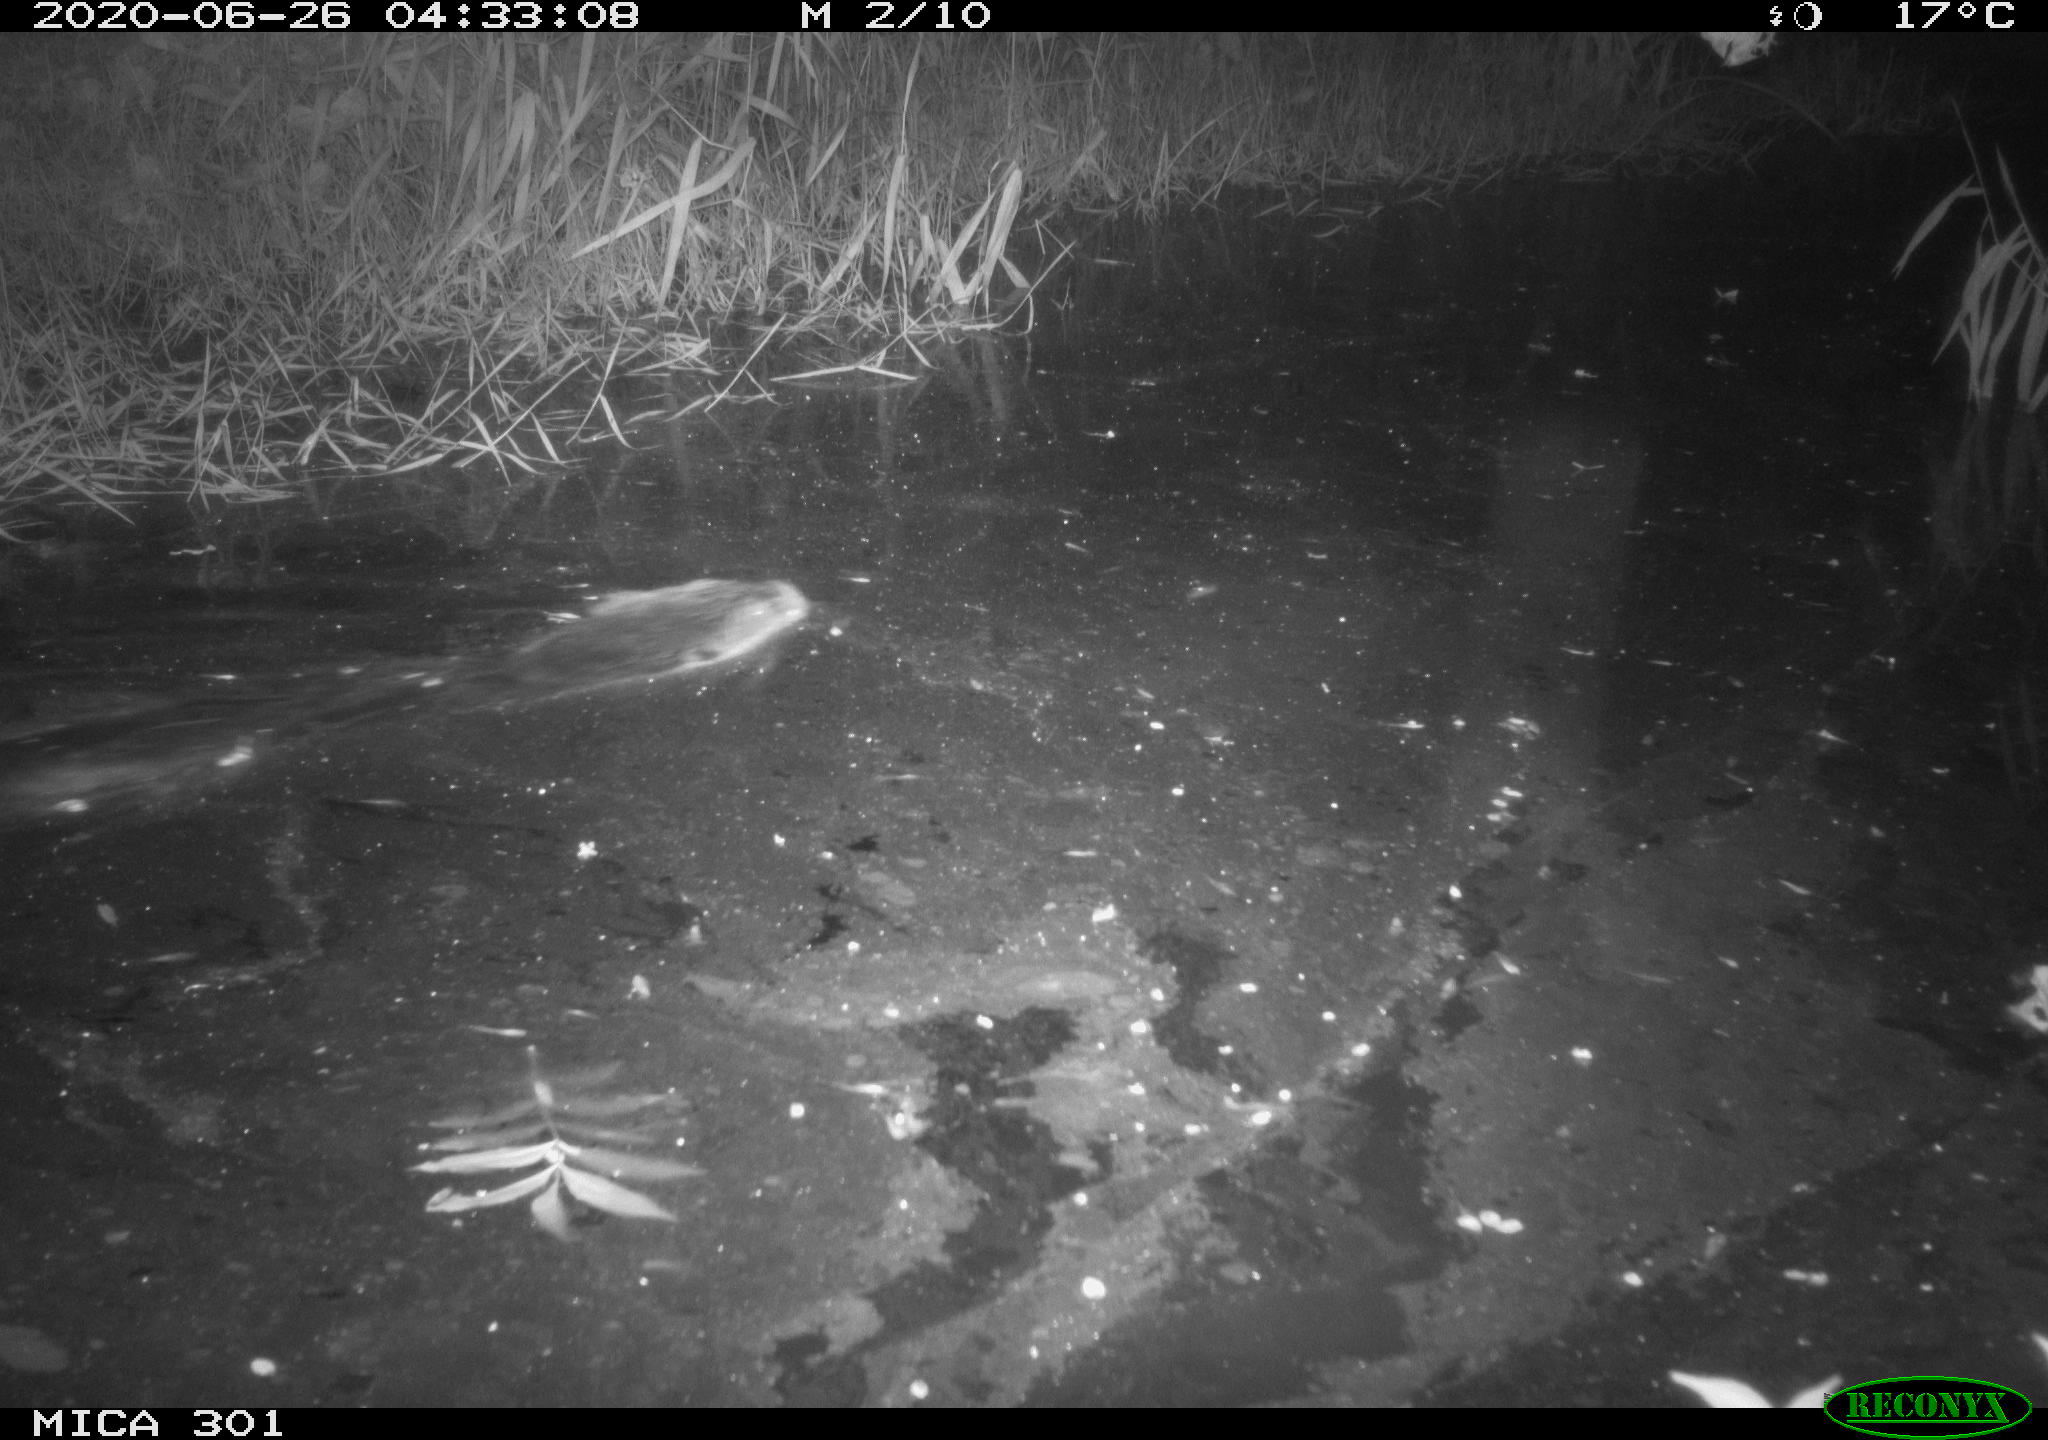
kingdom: Animalia
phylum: Chordata
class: Mammalia
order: Rodentia
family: Castoridae
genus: Castor
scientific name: Castor fiber
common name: Eurasian beaver
